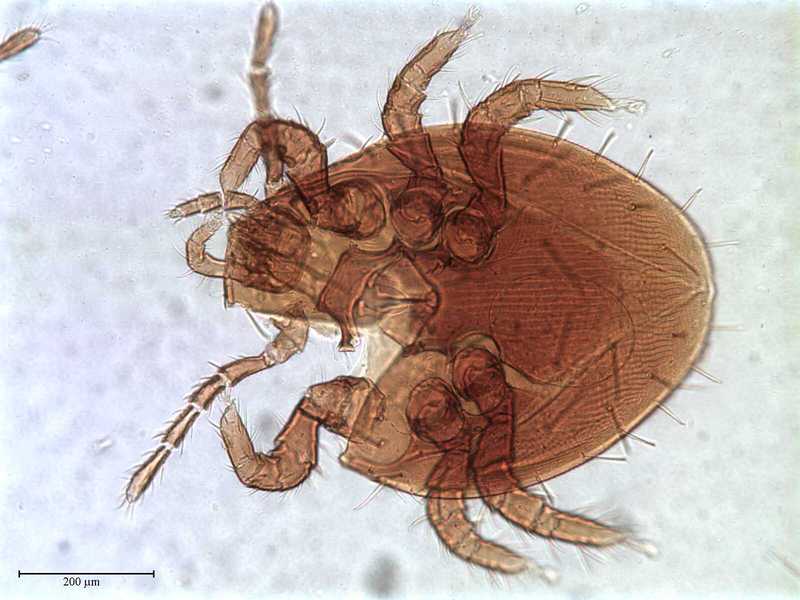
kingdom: Animalia
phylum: Arthropoda
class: Arachnida
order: Mesostigmata
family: Celaenopsidae
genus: Celaenopsis
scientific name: Celaenopsis
